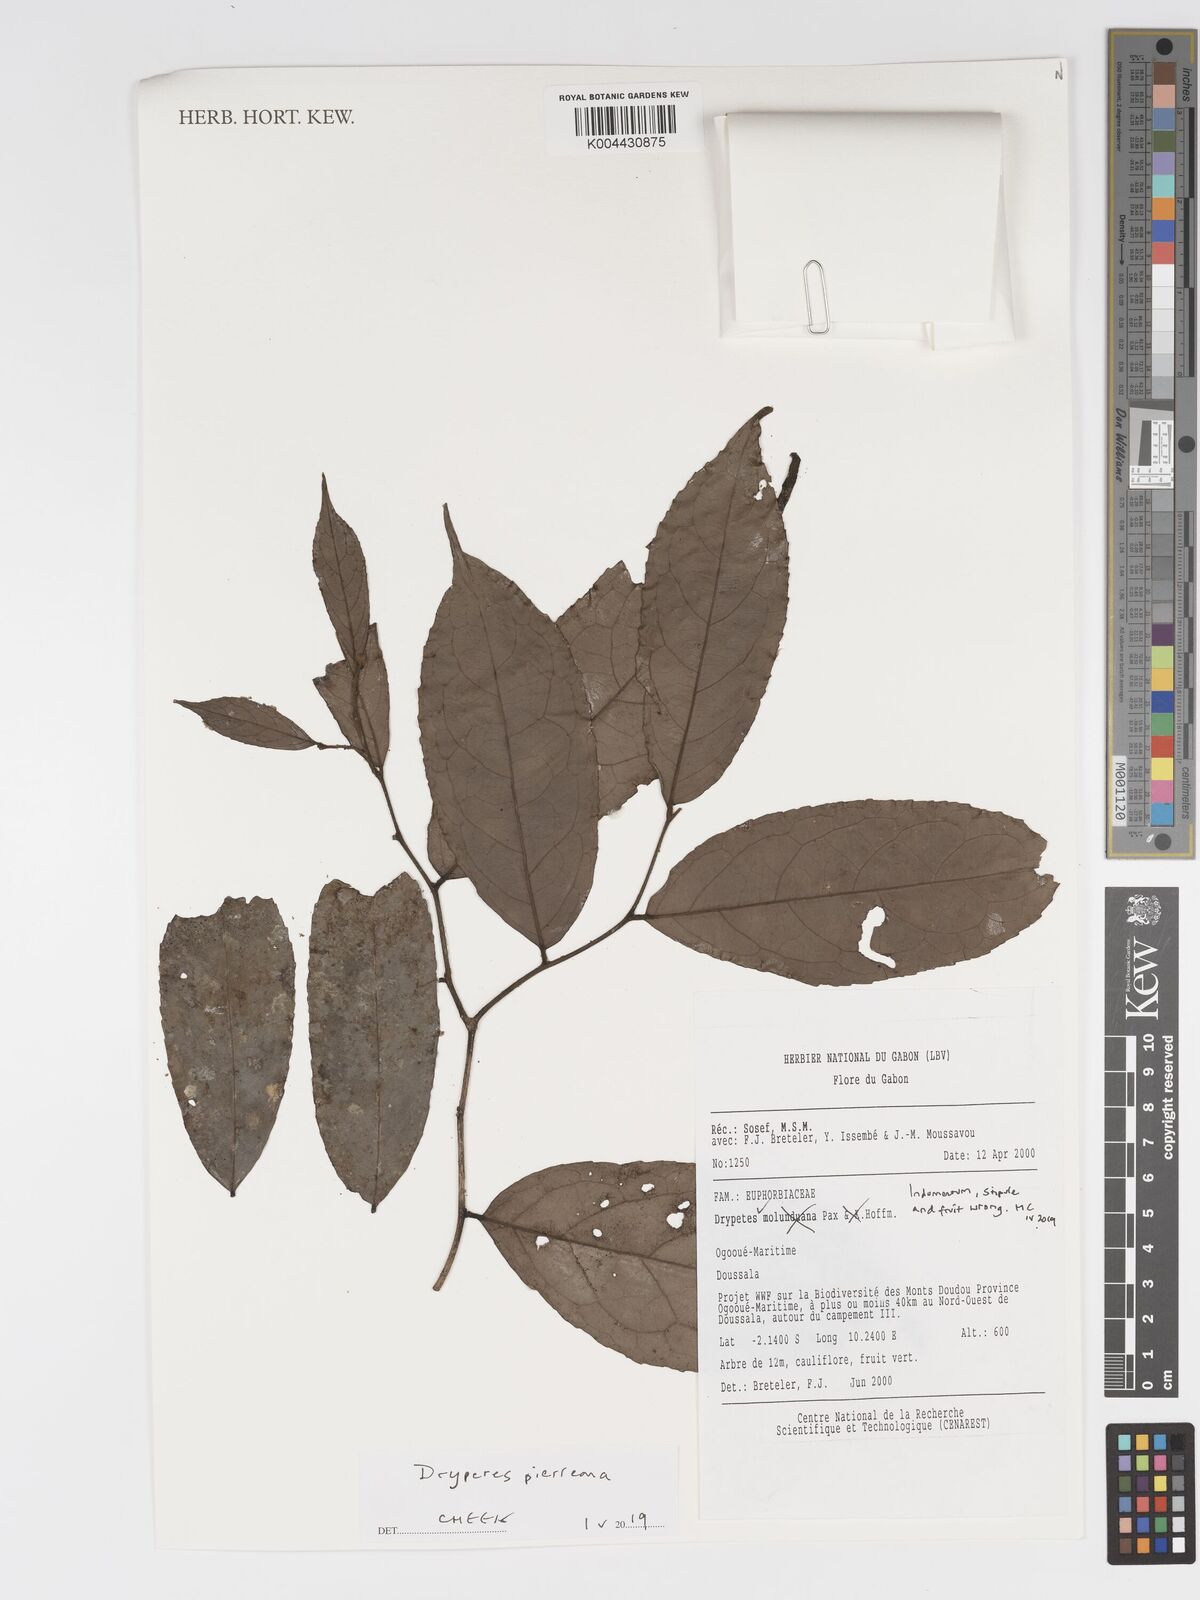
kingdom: Plantae
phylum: Tracheophyta
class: Magnoliopsida
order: Malpighiales
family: Putranjivaceae
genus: Drypetes
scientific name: Drypetes
